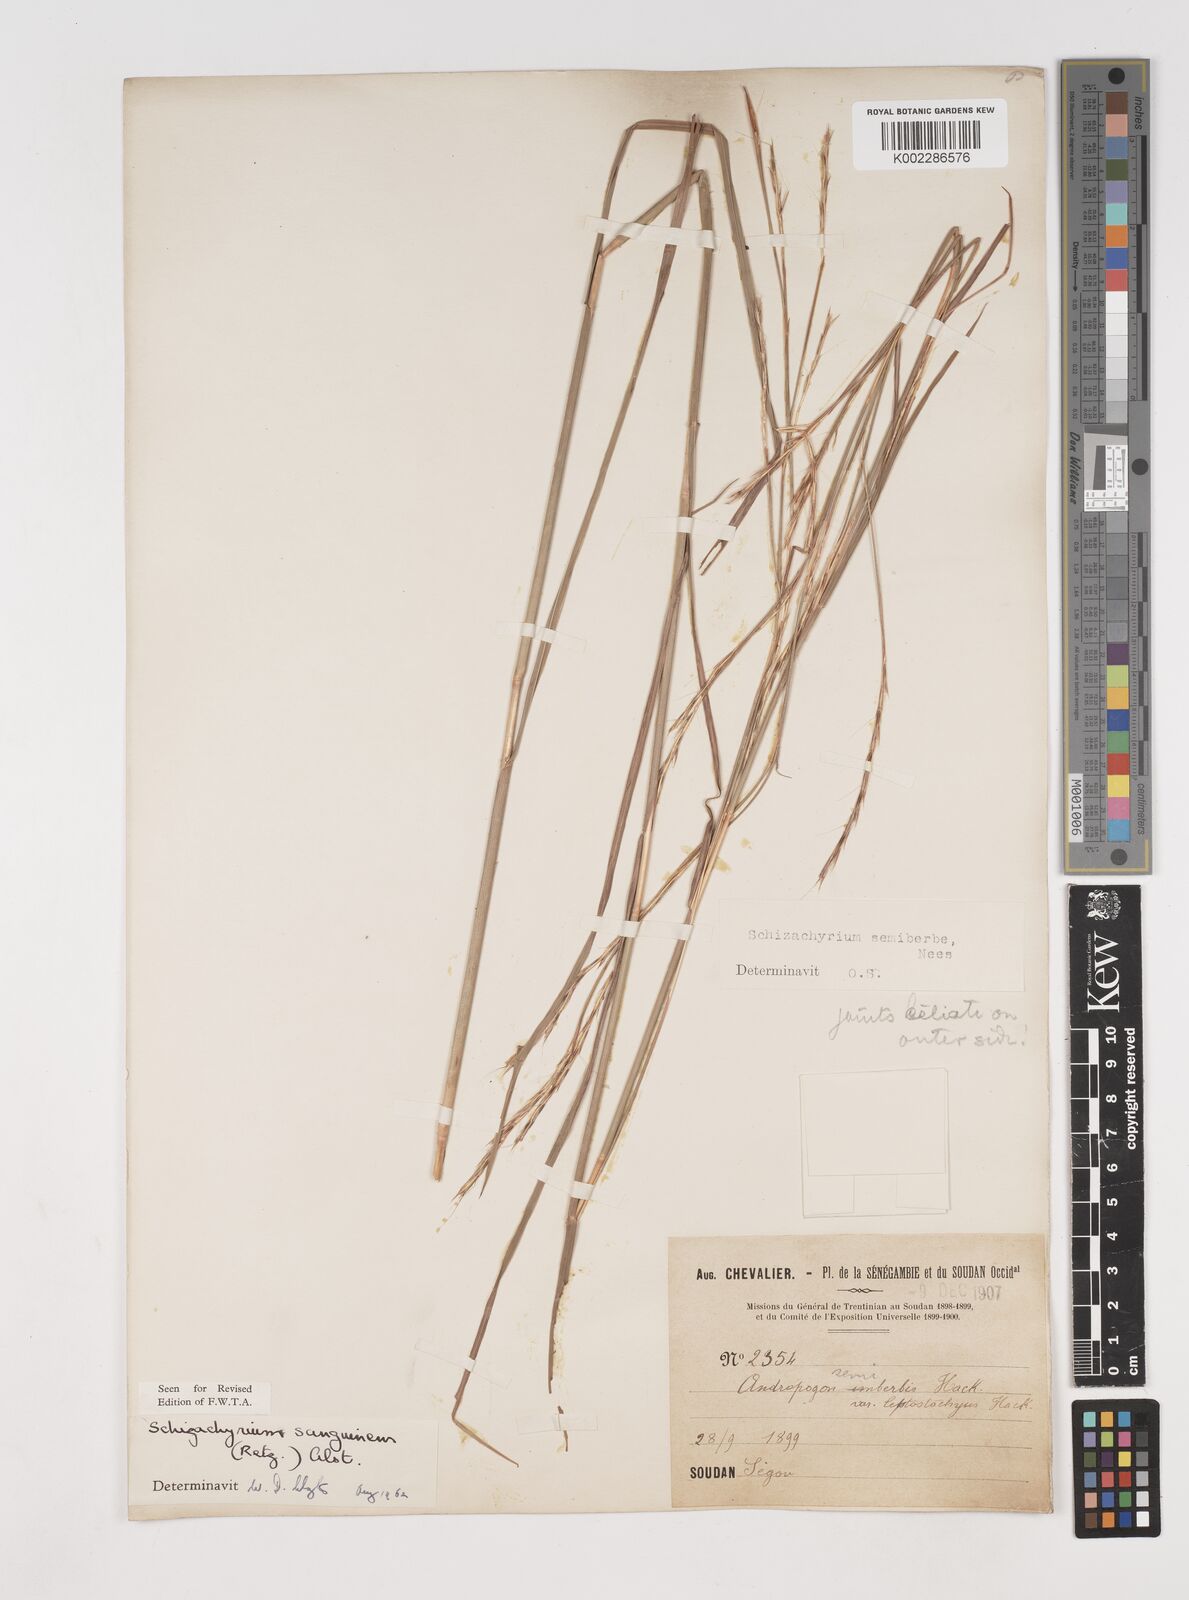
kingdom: Plantae
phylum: Tracheophyta
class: Liliopsida
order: Poales
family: Poaceae
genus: Schizachyrium
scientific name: Schizachyrium sanguineum
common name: Crimson bluestem
